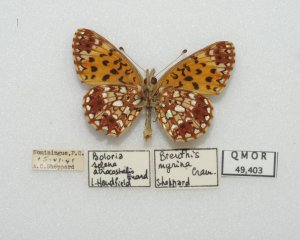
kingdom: Animalia
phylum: Arthropoda
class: Insecta
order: Lepidoptera
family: Nymphalidae
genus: Boloria
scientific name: Boloria selene
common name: Silver-bordered Fritillary
